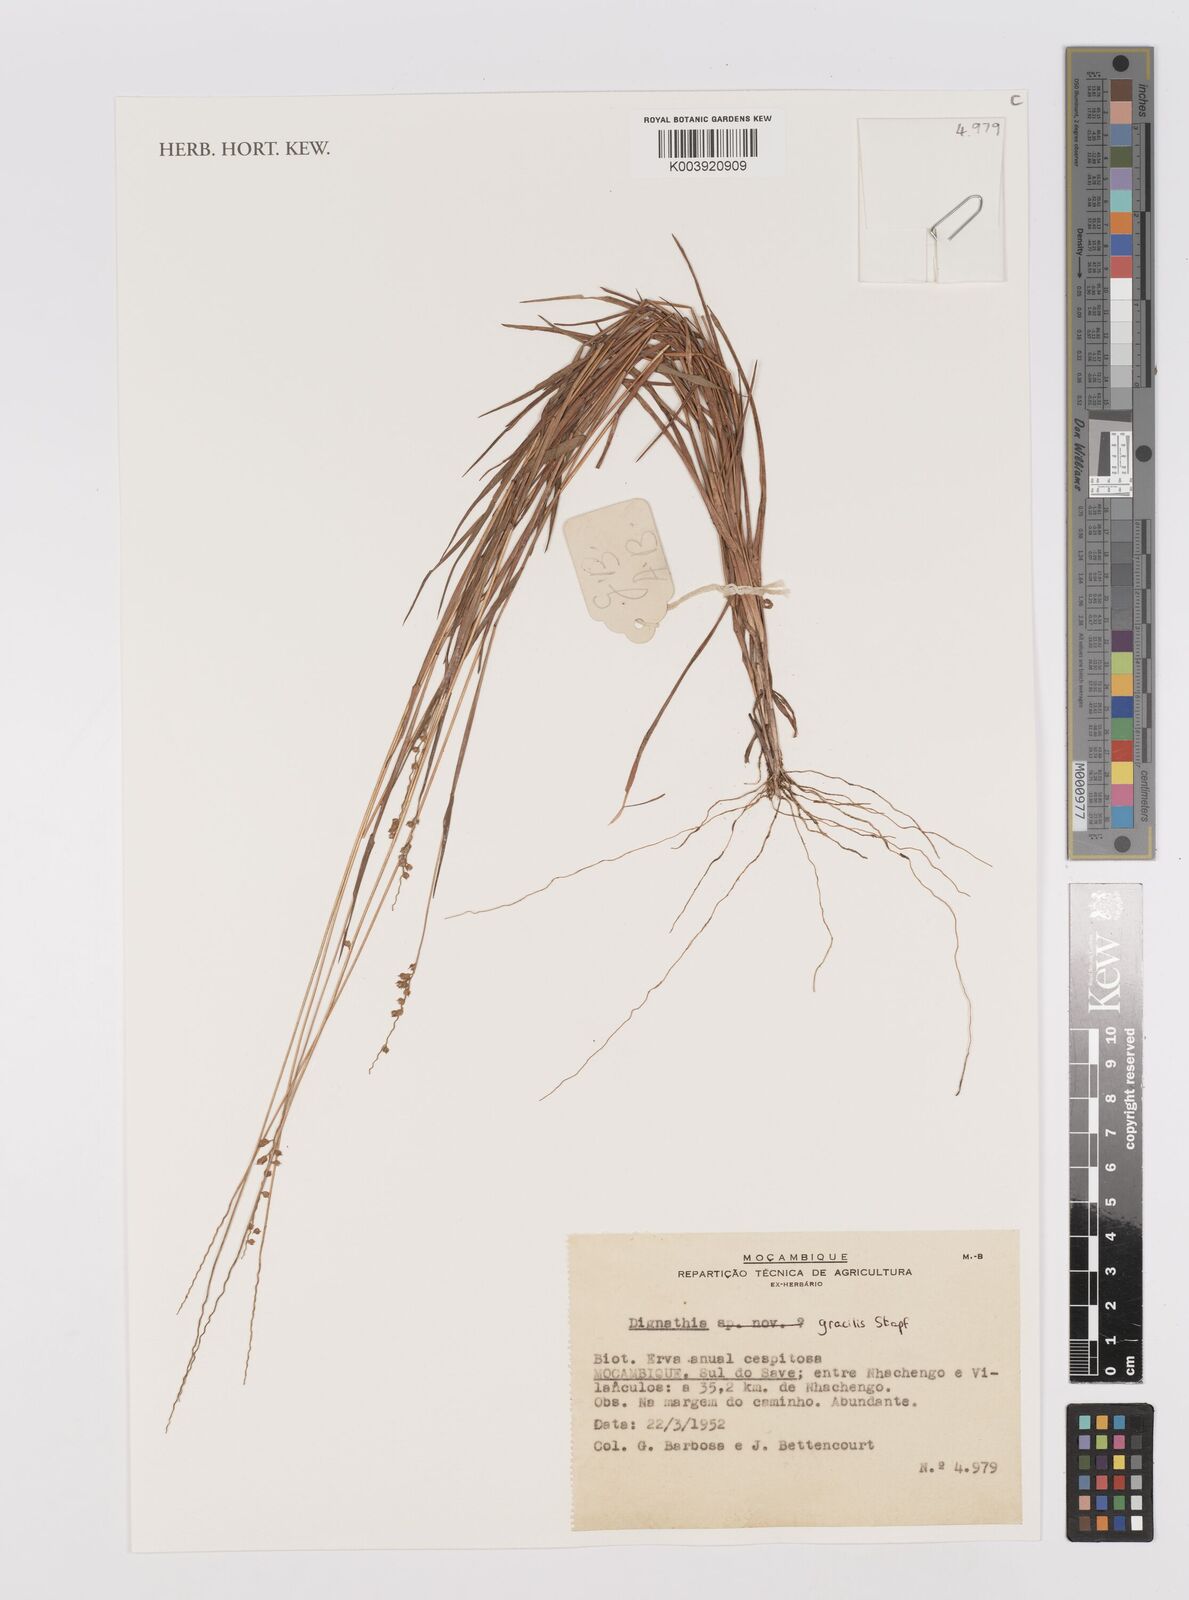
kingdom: Plantae
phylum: Tracheophyta
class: Liliopsida
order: Poales
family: Poaceae
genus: Dignathia
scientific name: Dignathia gracilis
